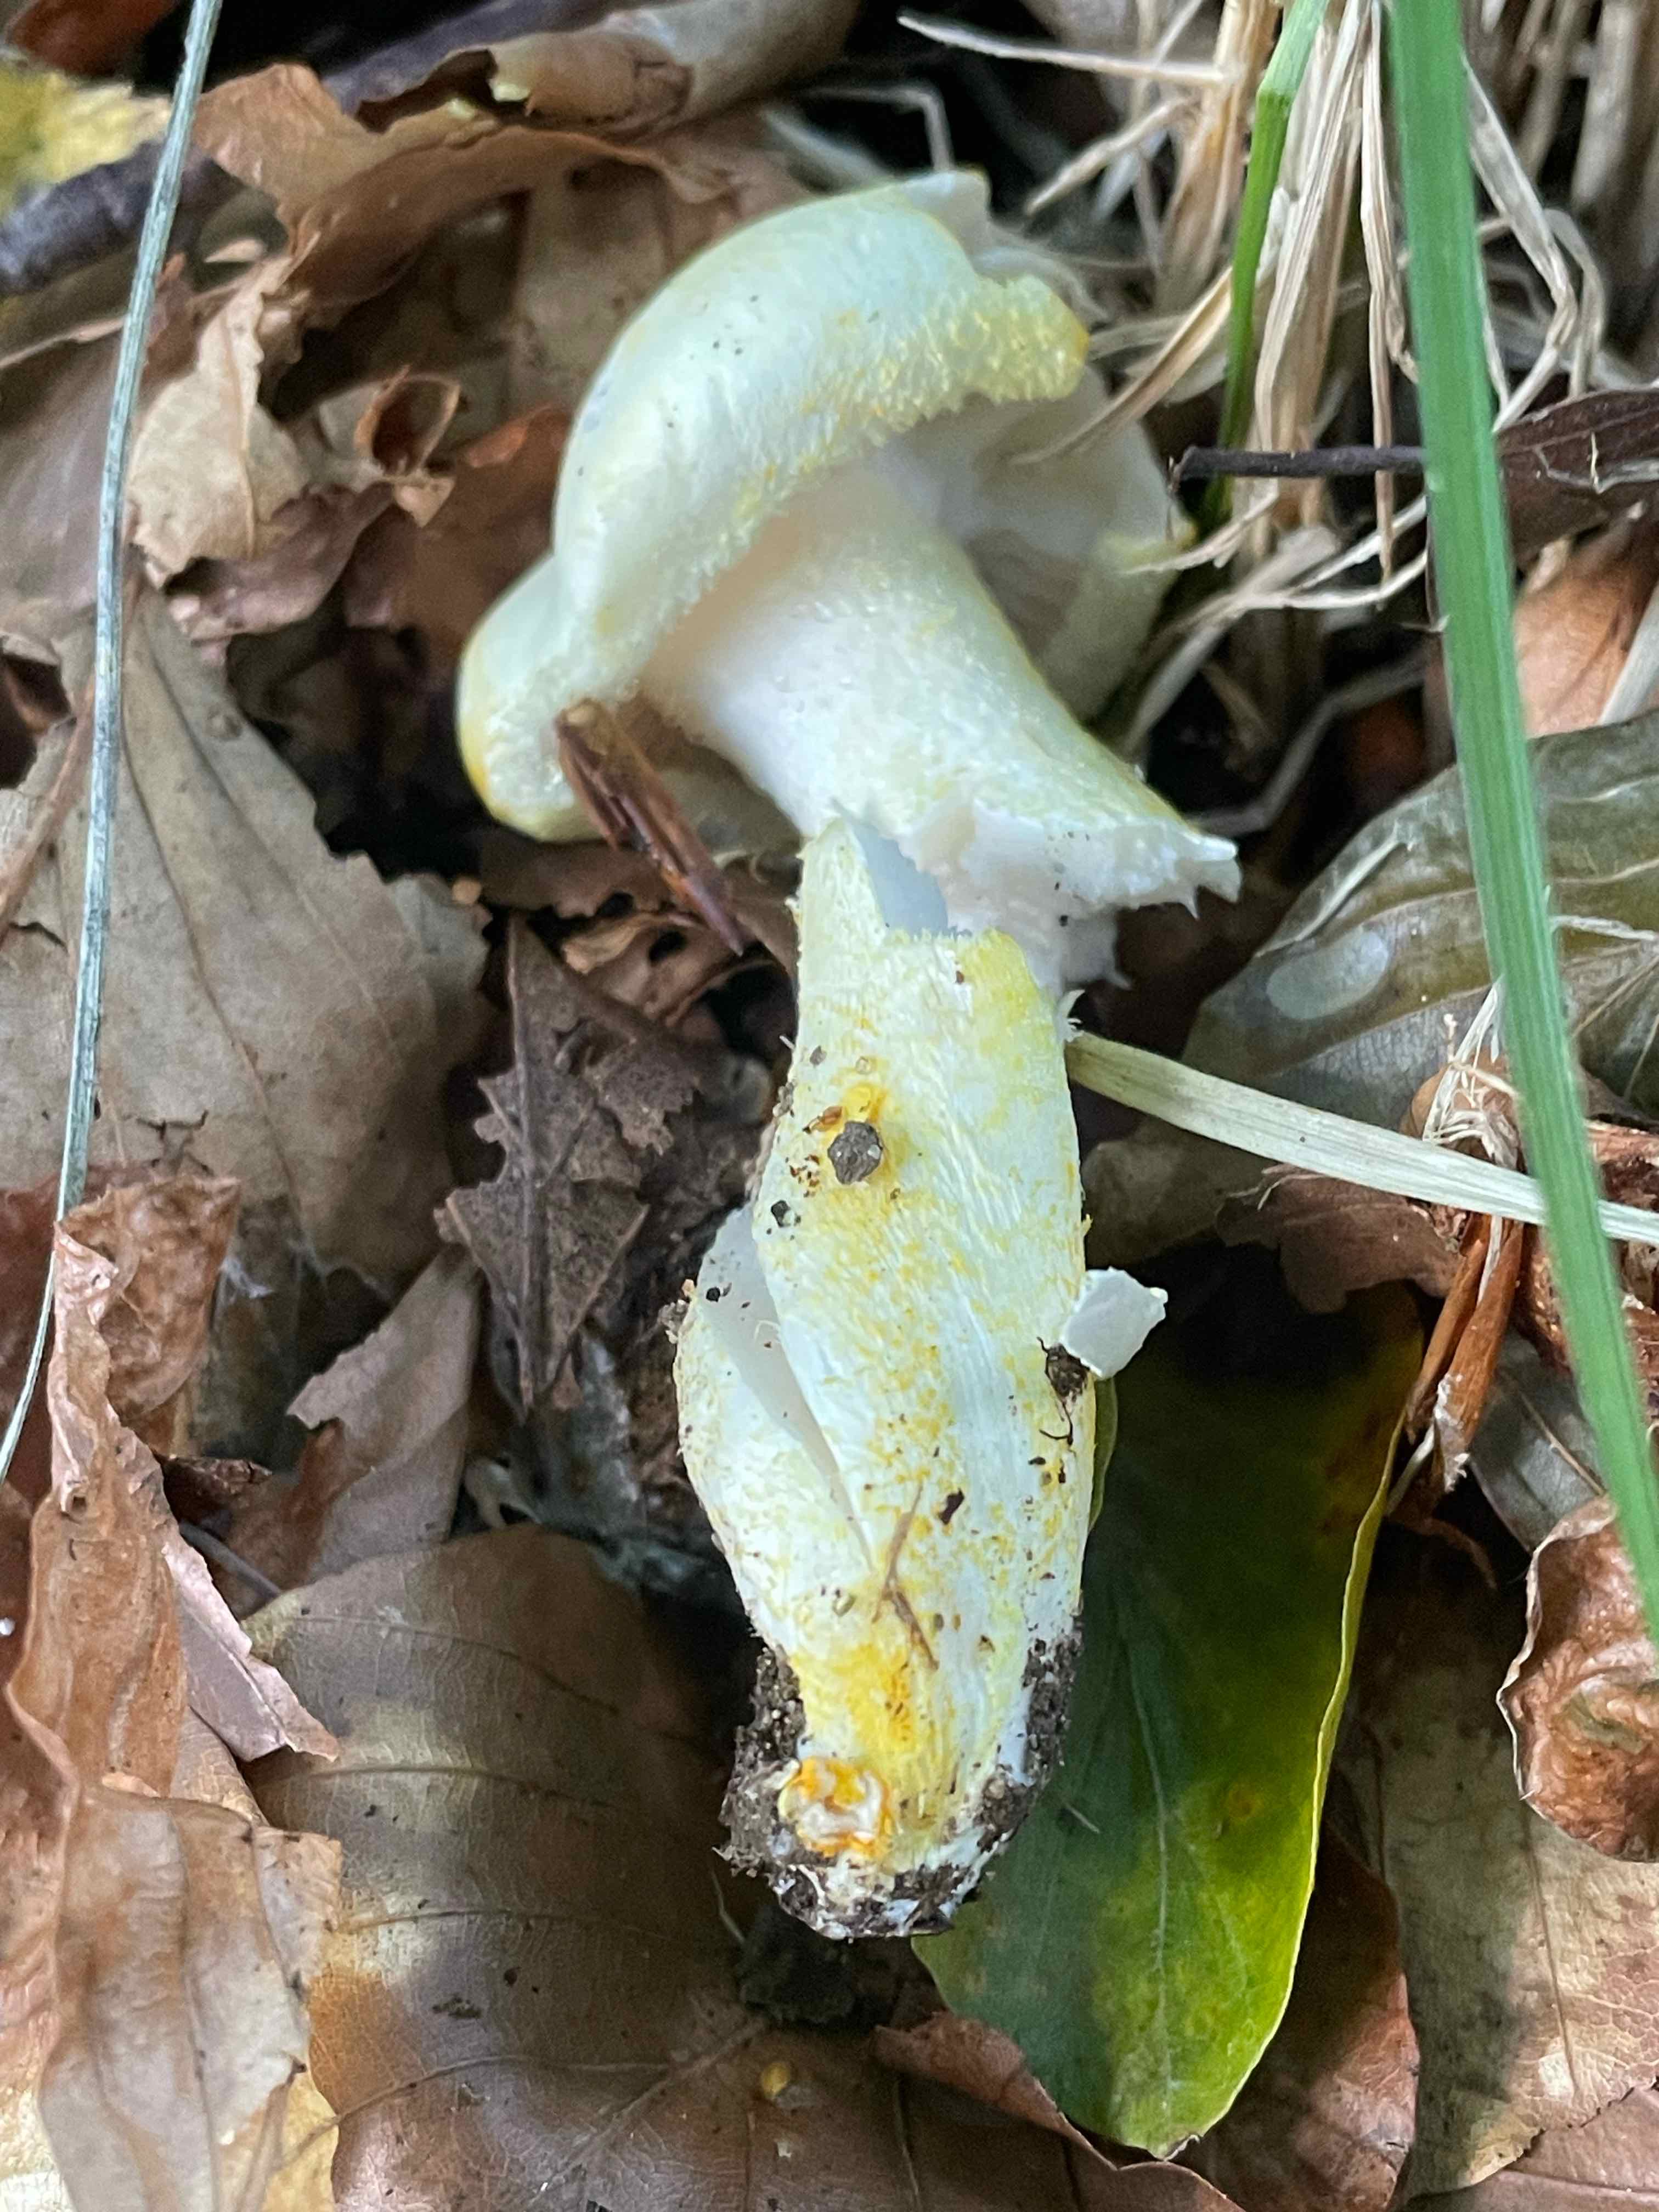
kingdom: Fungi
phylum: Basidiomycota
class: Agaricomycetes
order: Agaricales
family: Hygrophoraceae
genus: Hygrophorus
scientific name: Hygrophorus chrysodon
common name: gulfnugget sneglehat
